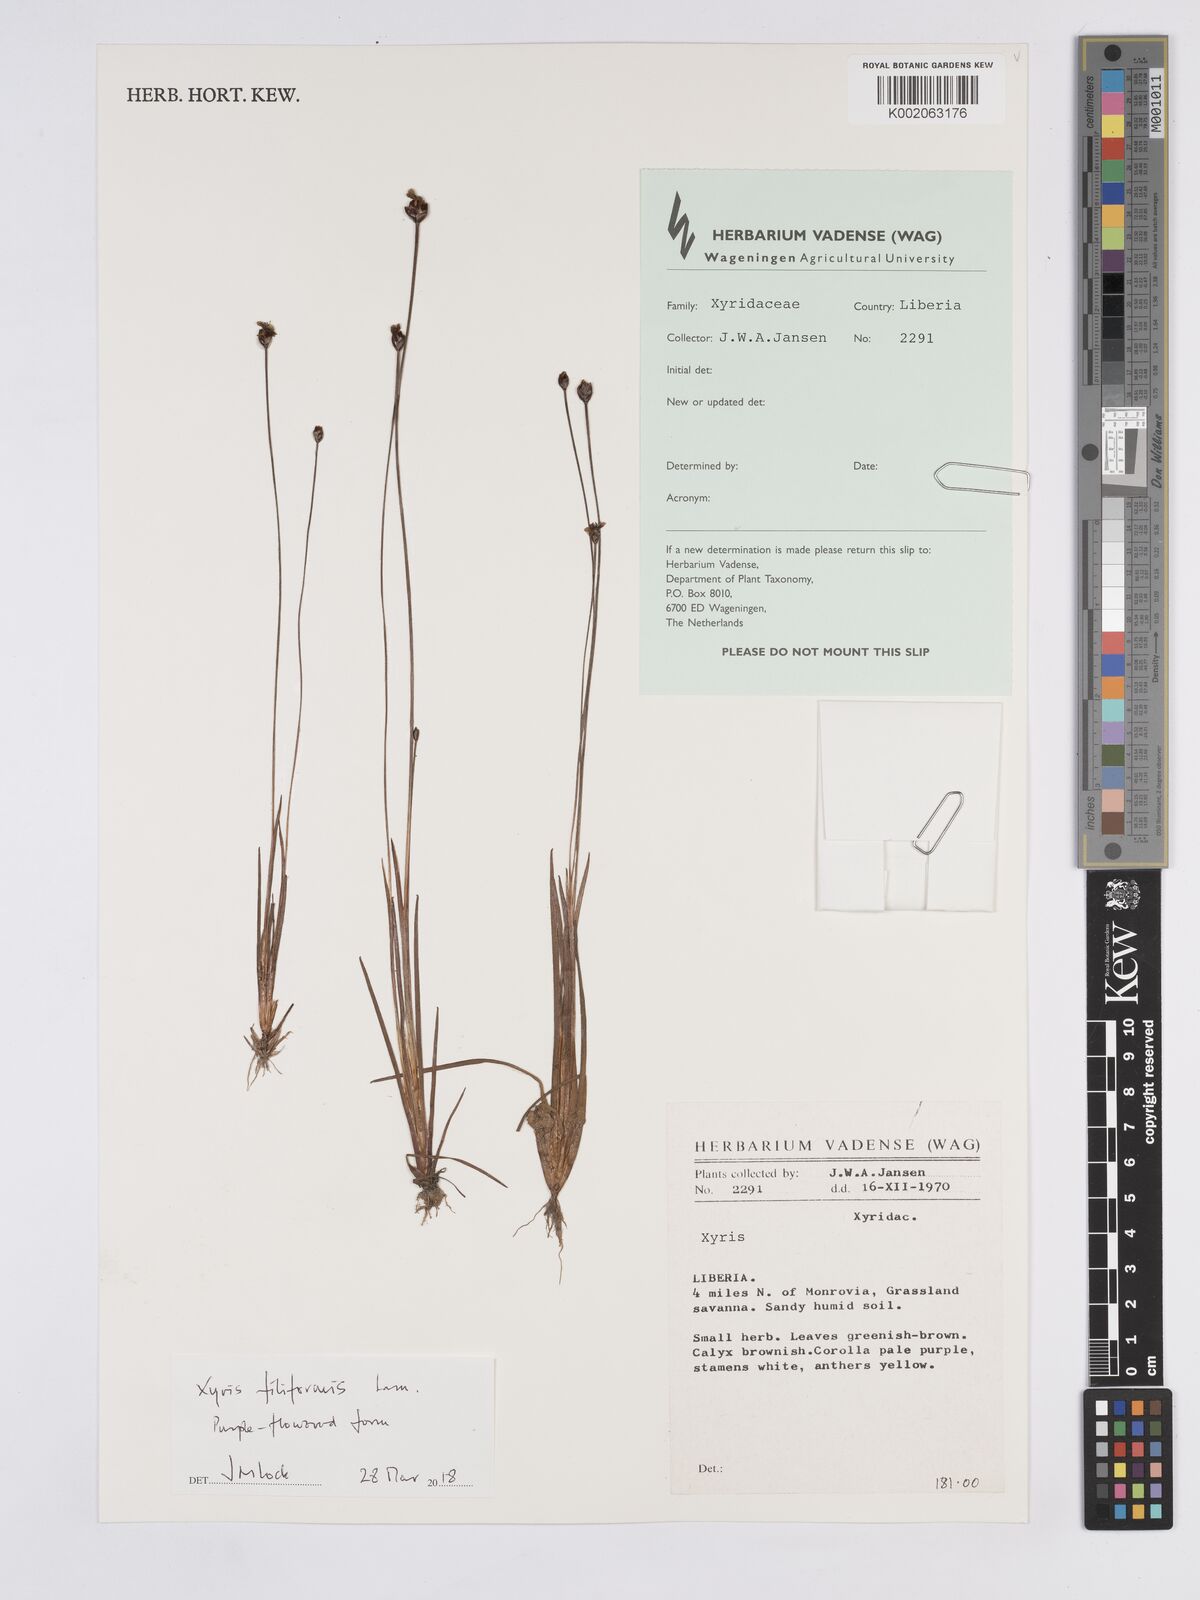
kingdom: Plantae
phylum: Tracheophyta
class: Liliopsida
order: Poales
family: Xyridaceae
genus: Xyris
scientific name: Xyris filiformis
